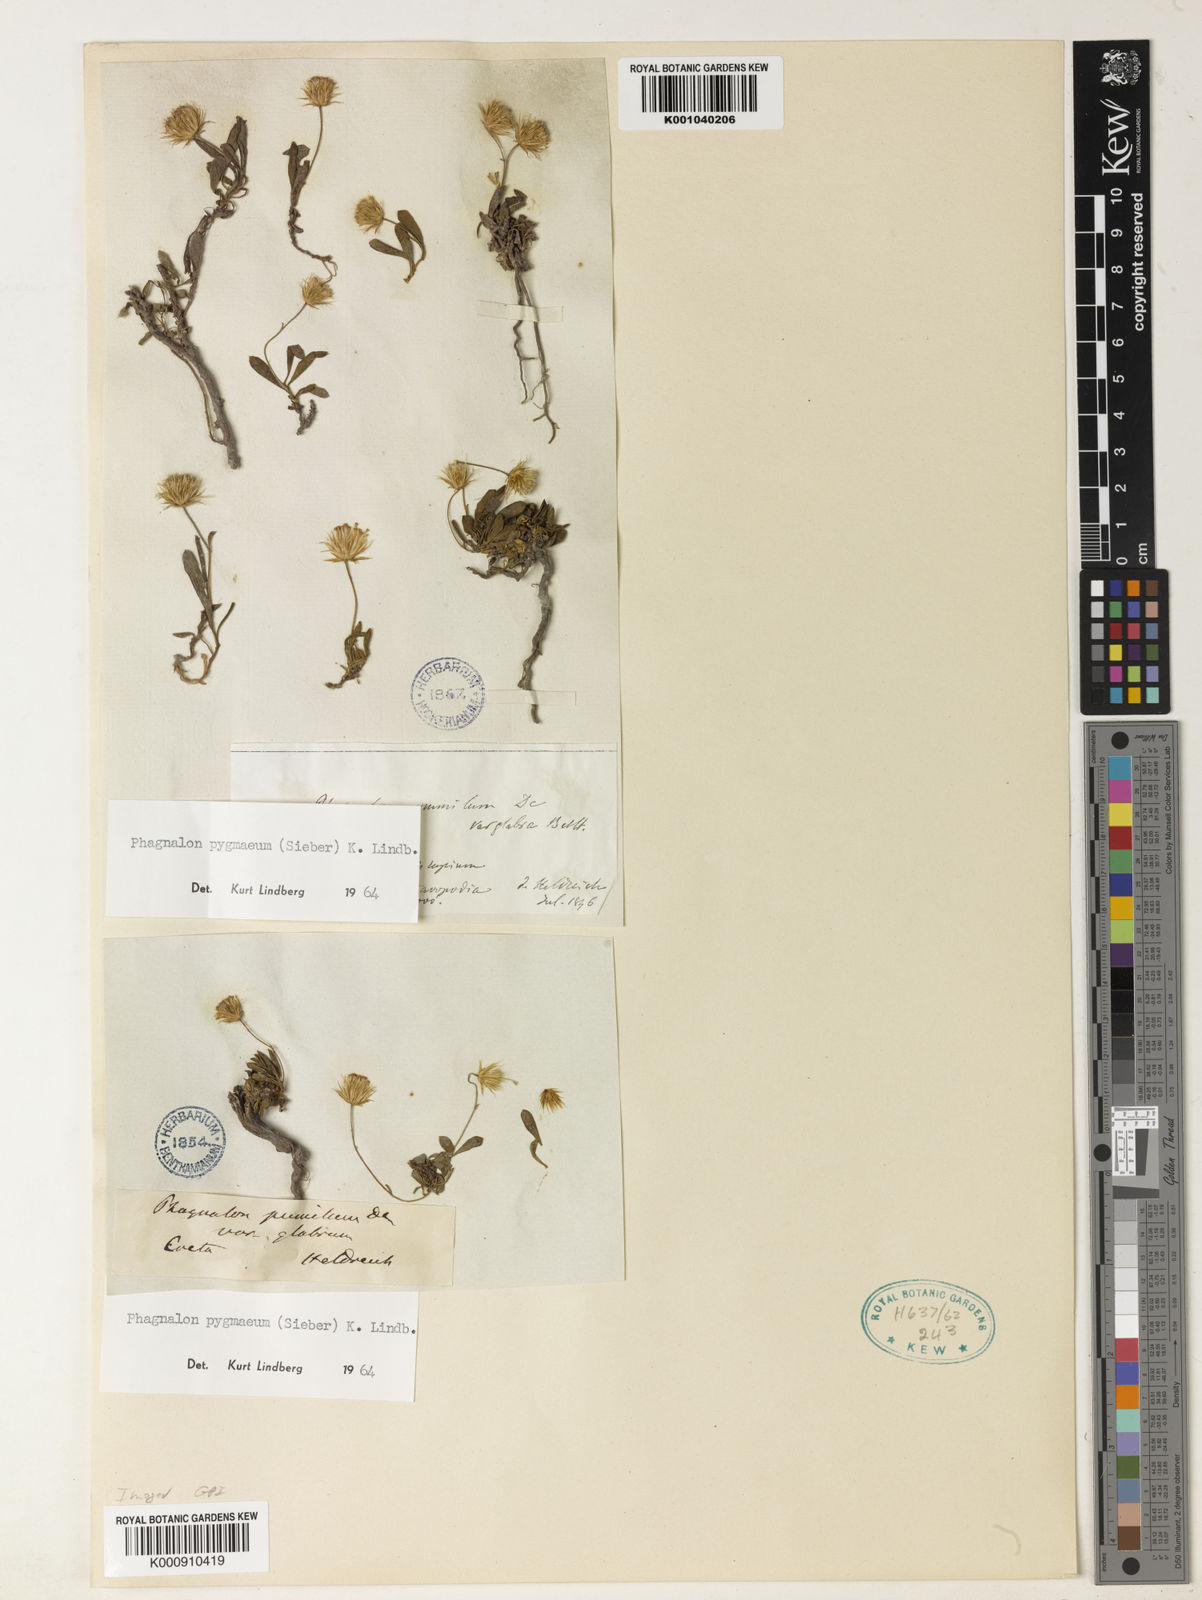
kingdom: Plantae
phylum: Tracheophyta
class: Magnoliopsida
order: Asterales
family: Asteraceae
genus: Phagnalon
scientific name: Phagnalon
